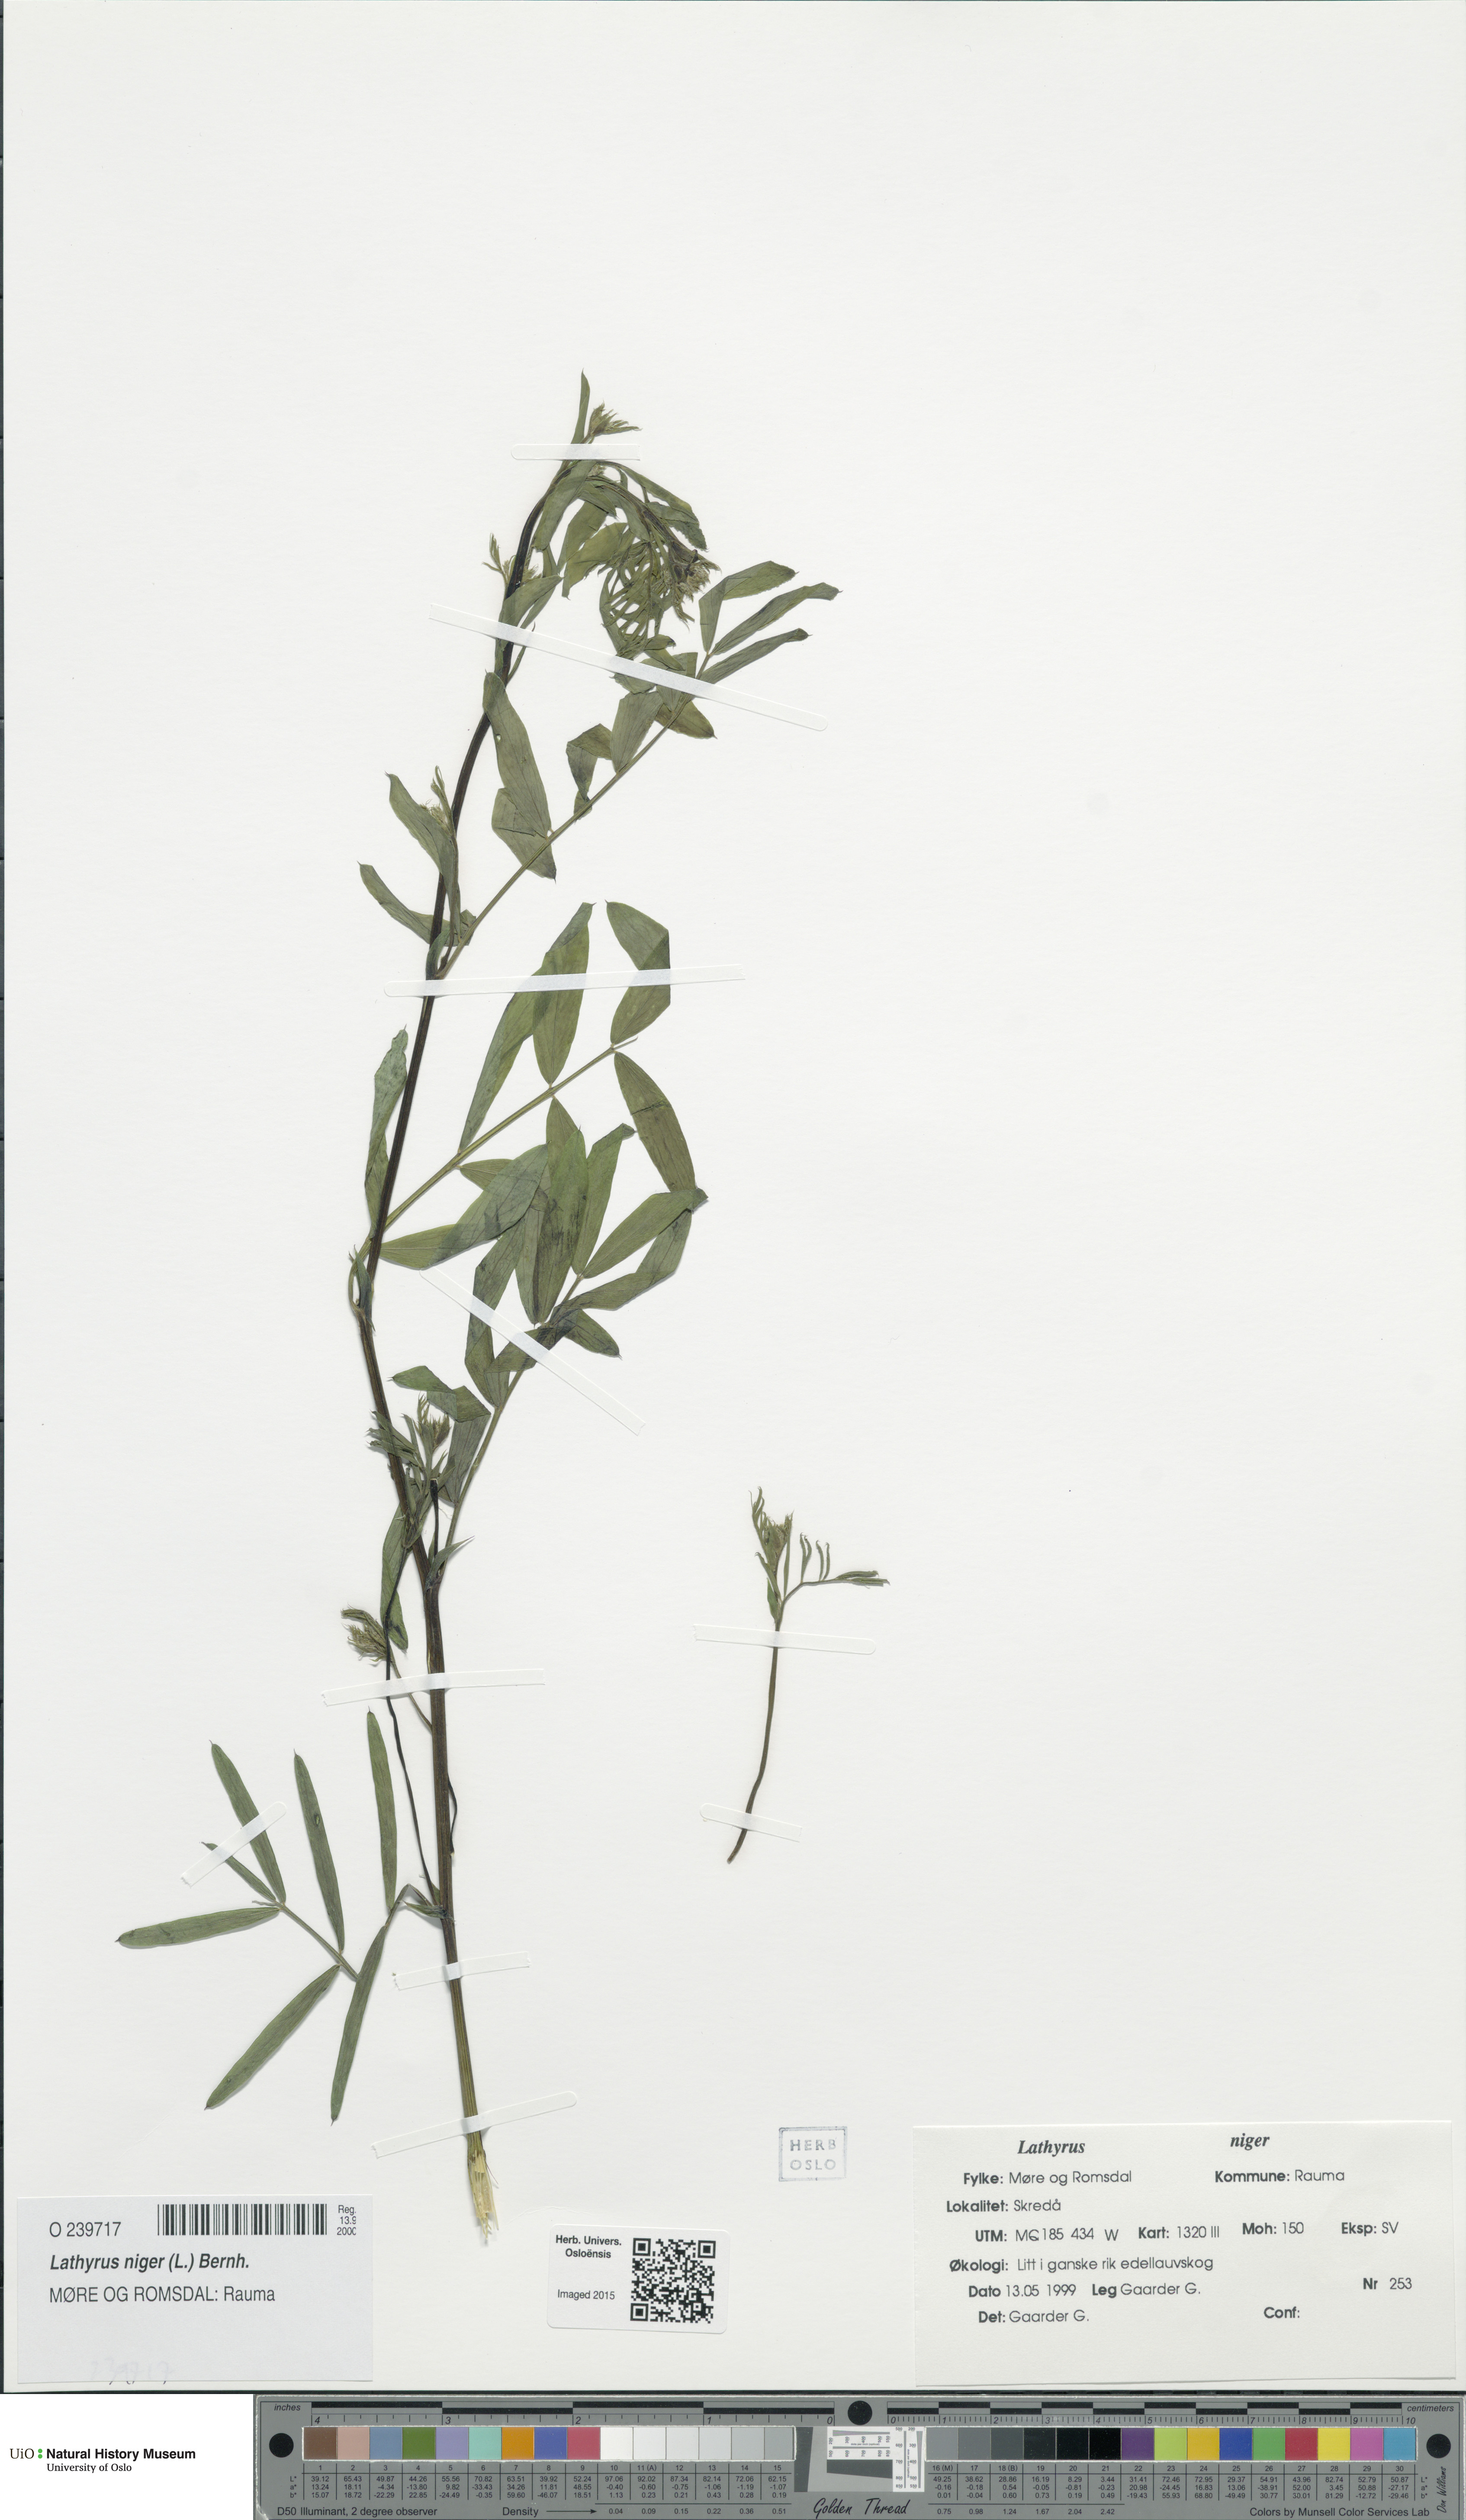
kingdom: Plantae
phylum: Tracheophyta
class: Magnoliopsida
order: Fabales
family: Fabaceae
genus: Lathyrus
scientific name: Lathyrus niger
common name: Black pea
